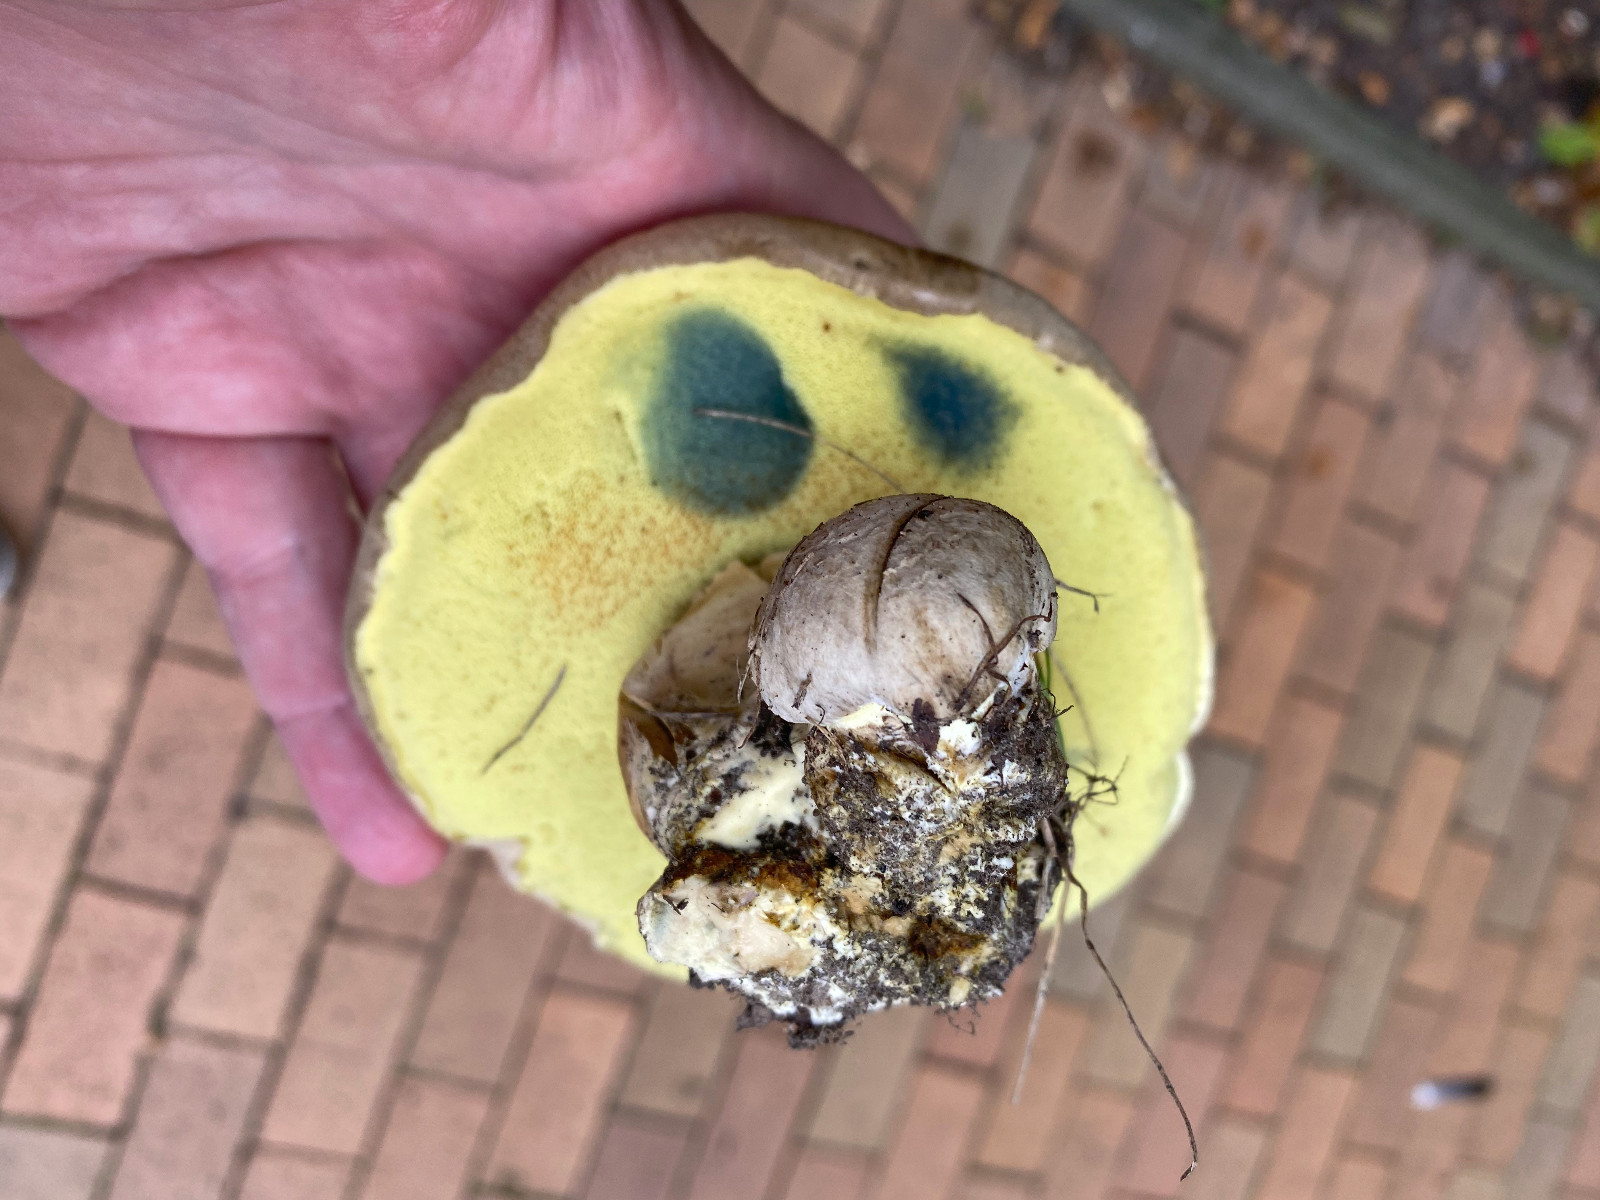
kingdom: Fungi
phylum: Basidiomycota
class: Agaricomycetes
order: Boletales
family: Boletaceae
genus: Caloboletus
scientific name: Caloboletus radicans
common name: rod-rørhat
